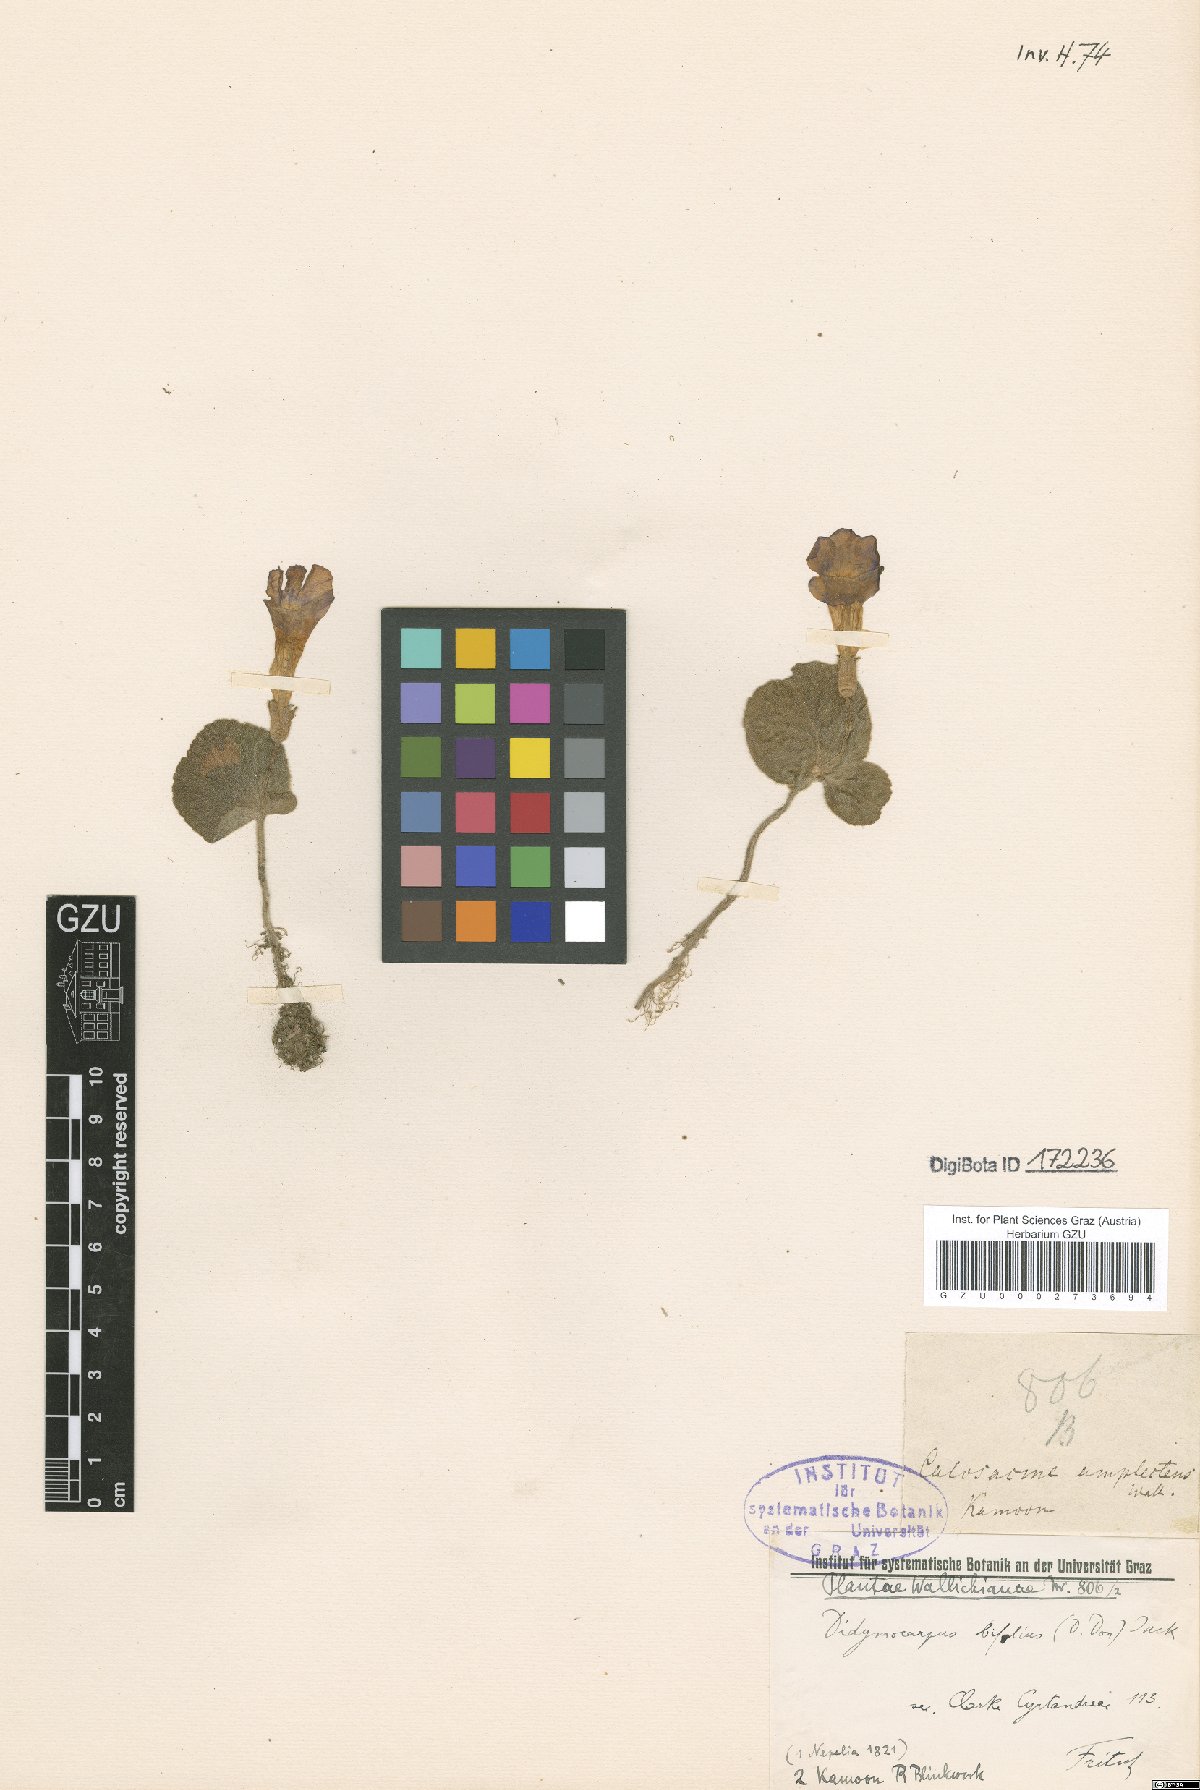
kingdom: Plantae
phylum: Tracheophyta
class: Magnoliopsida
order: Lamiales
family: Gesneriaceae
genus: Henckelia
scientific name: Henckelia bifolia
